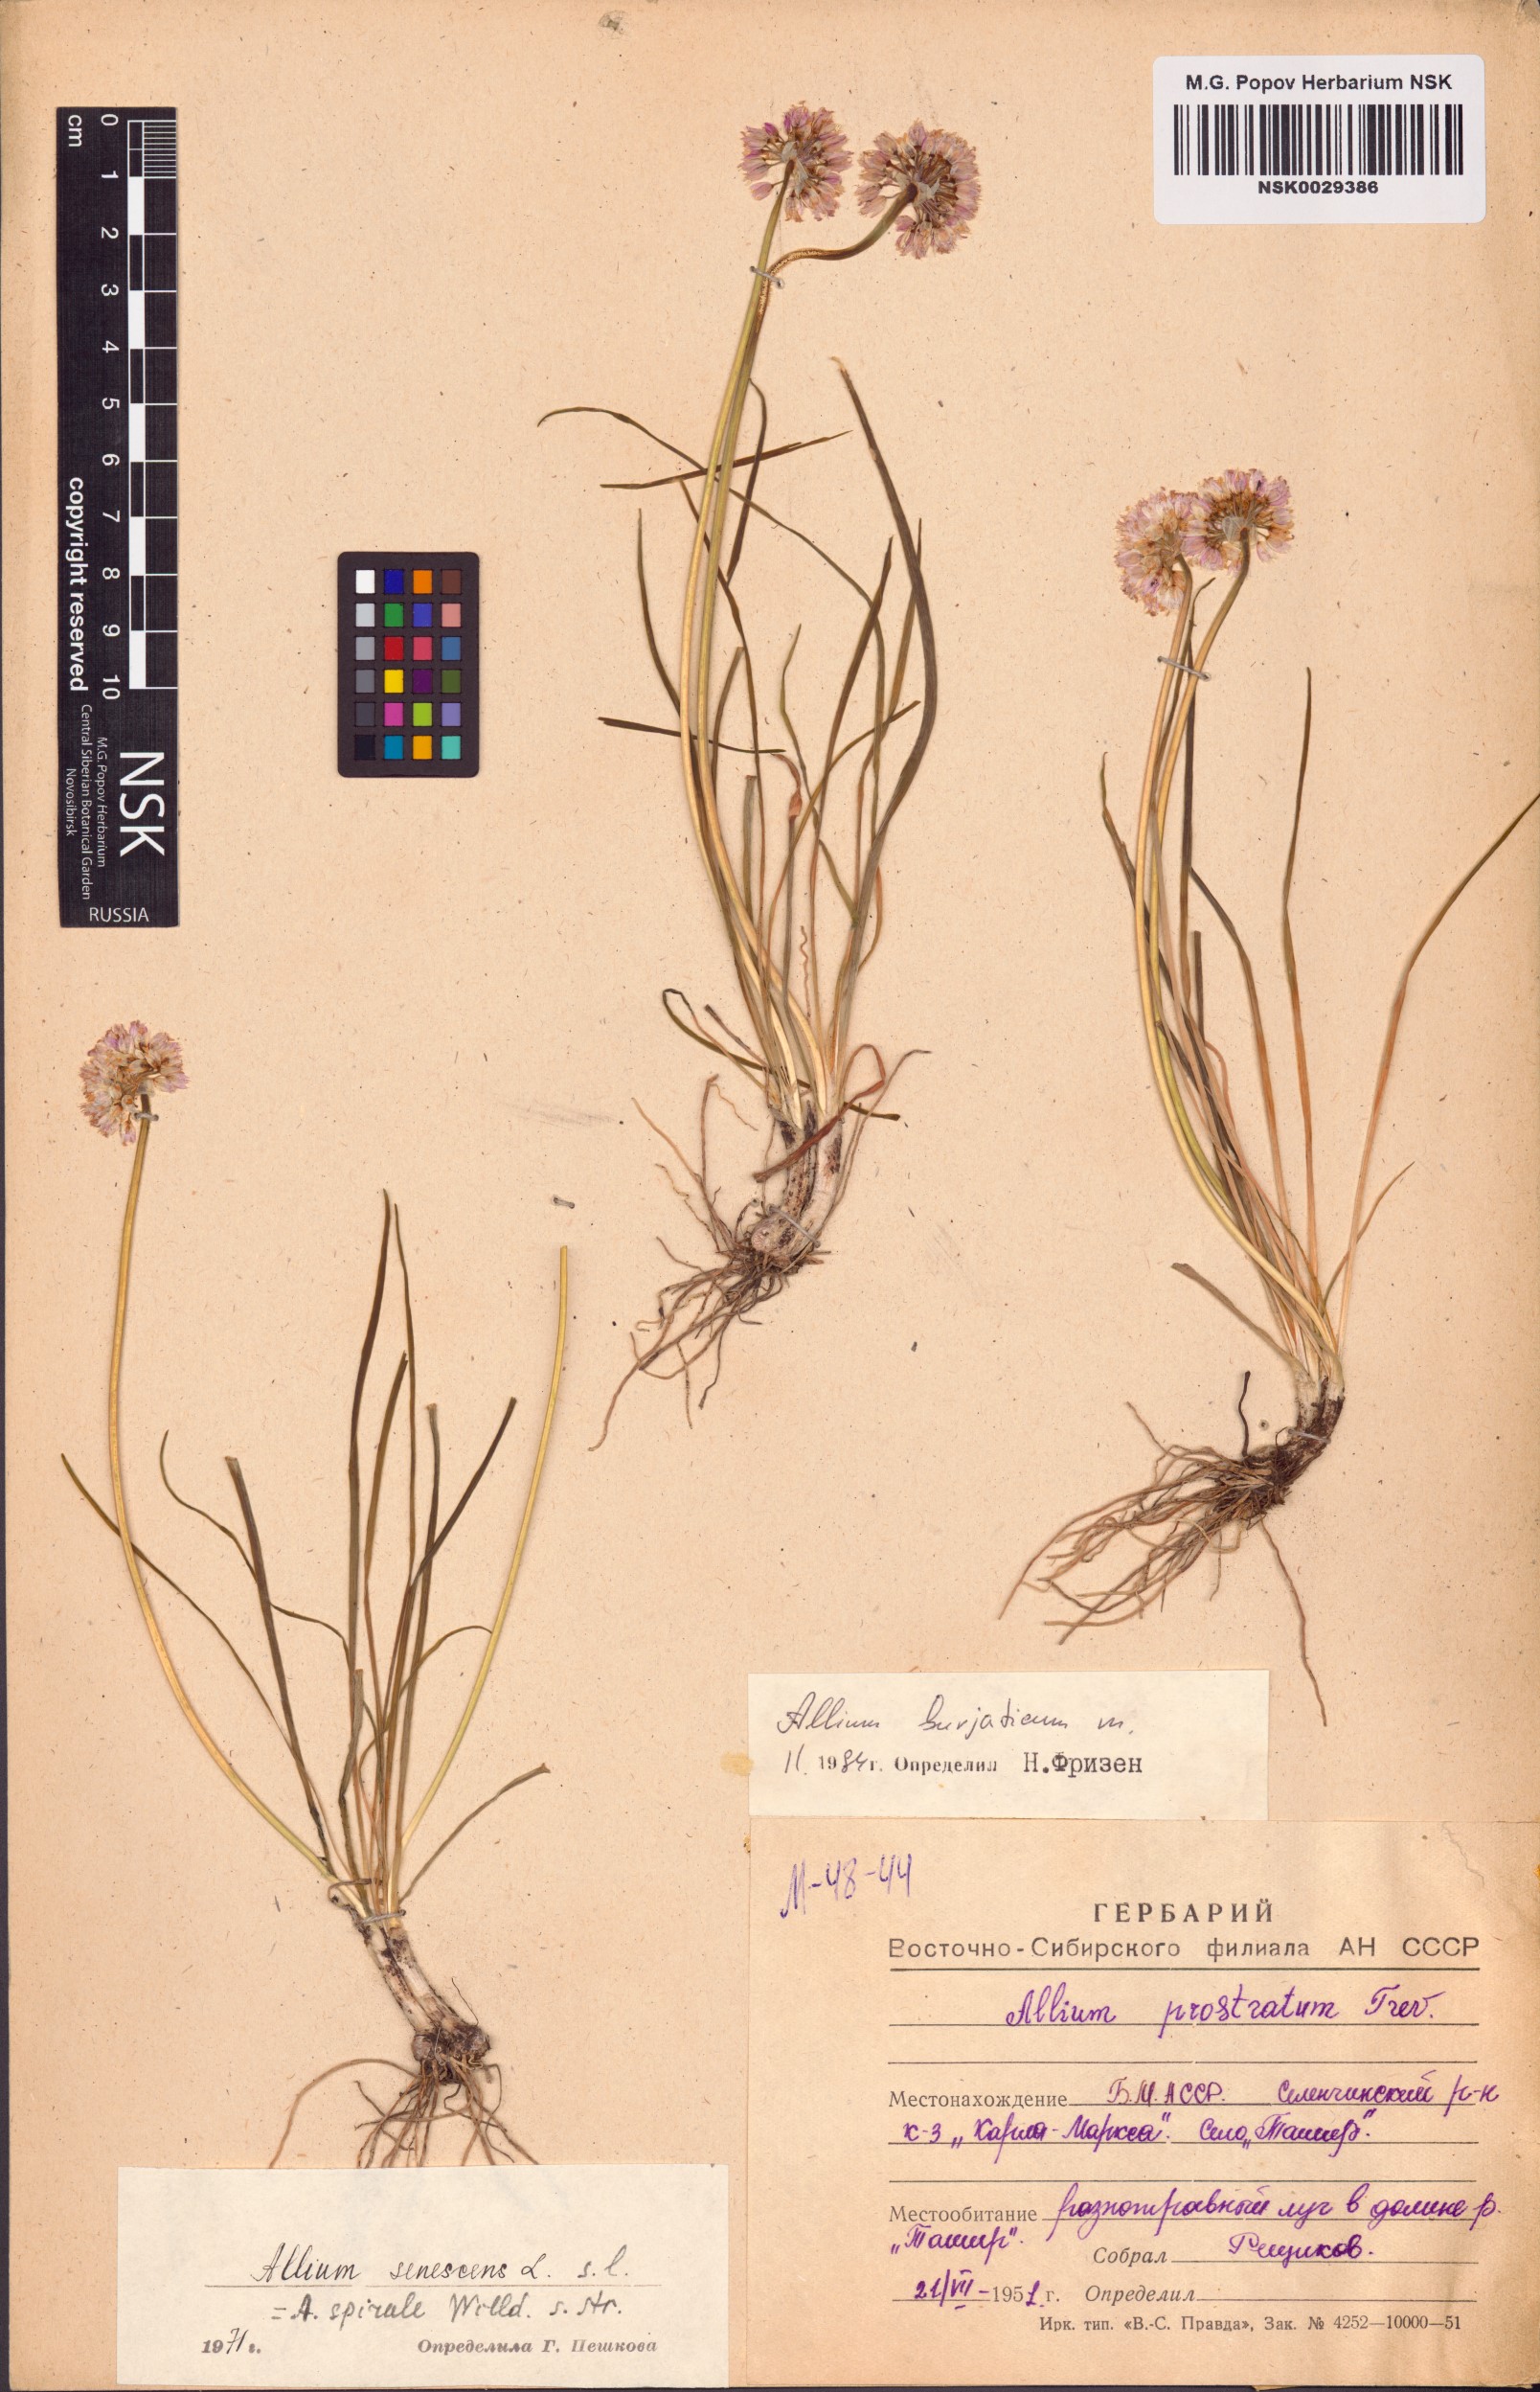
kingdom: Plantae
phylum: Tracheophyta
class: Liliopsida
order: Asparagales
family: Amaryllidaceae
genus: Allium
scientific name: Allium burjaticum
